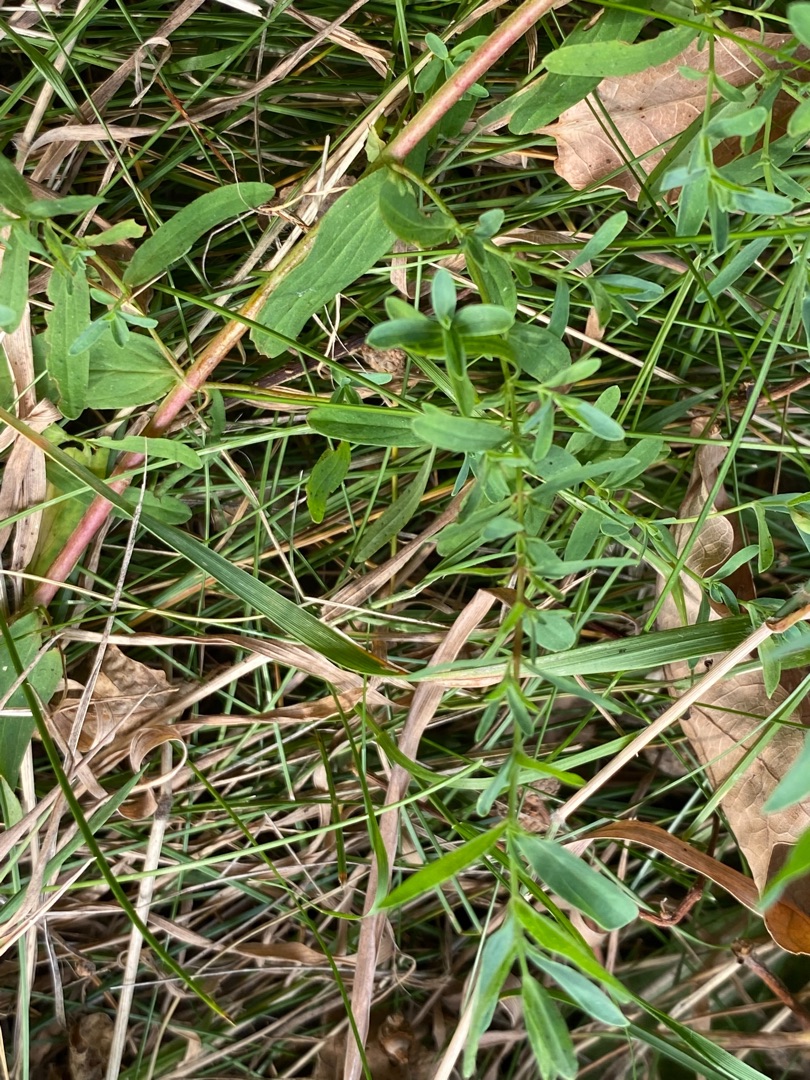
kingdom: Plantae
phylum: Tracheophyta
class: Magnoliopsida
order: Malpighiales
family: Hypericaceae
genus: Hypericum
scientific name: Hypericum perforatum
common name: Prikbladet perikon
